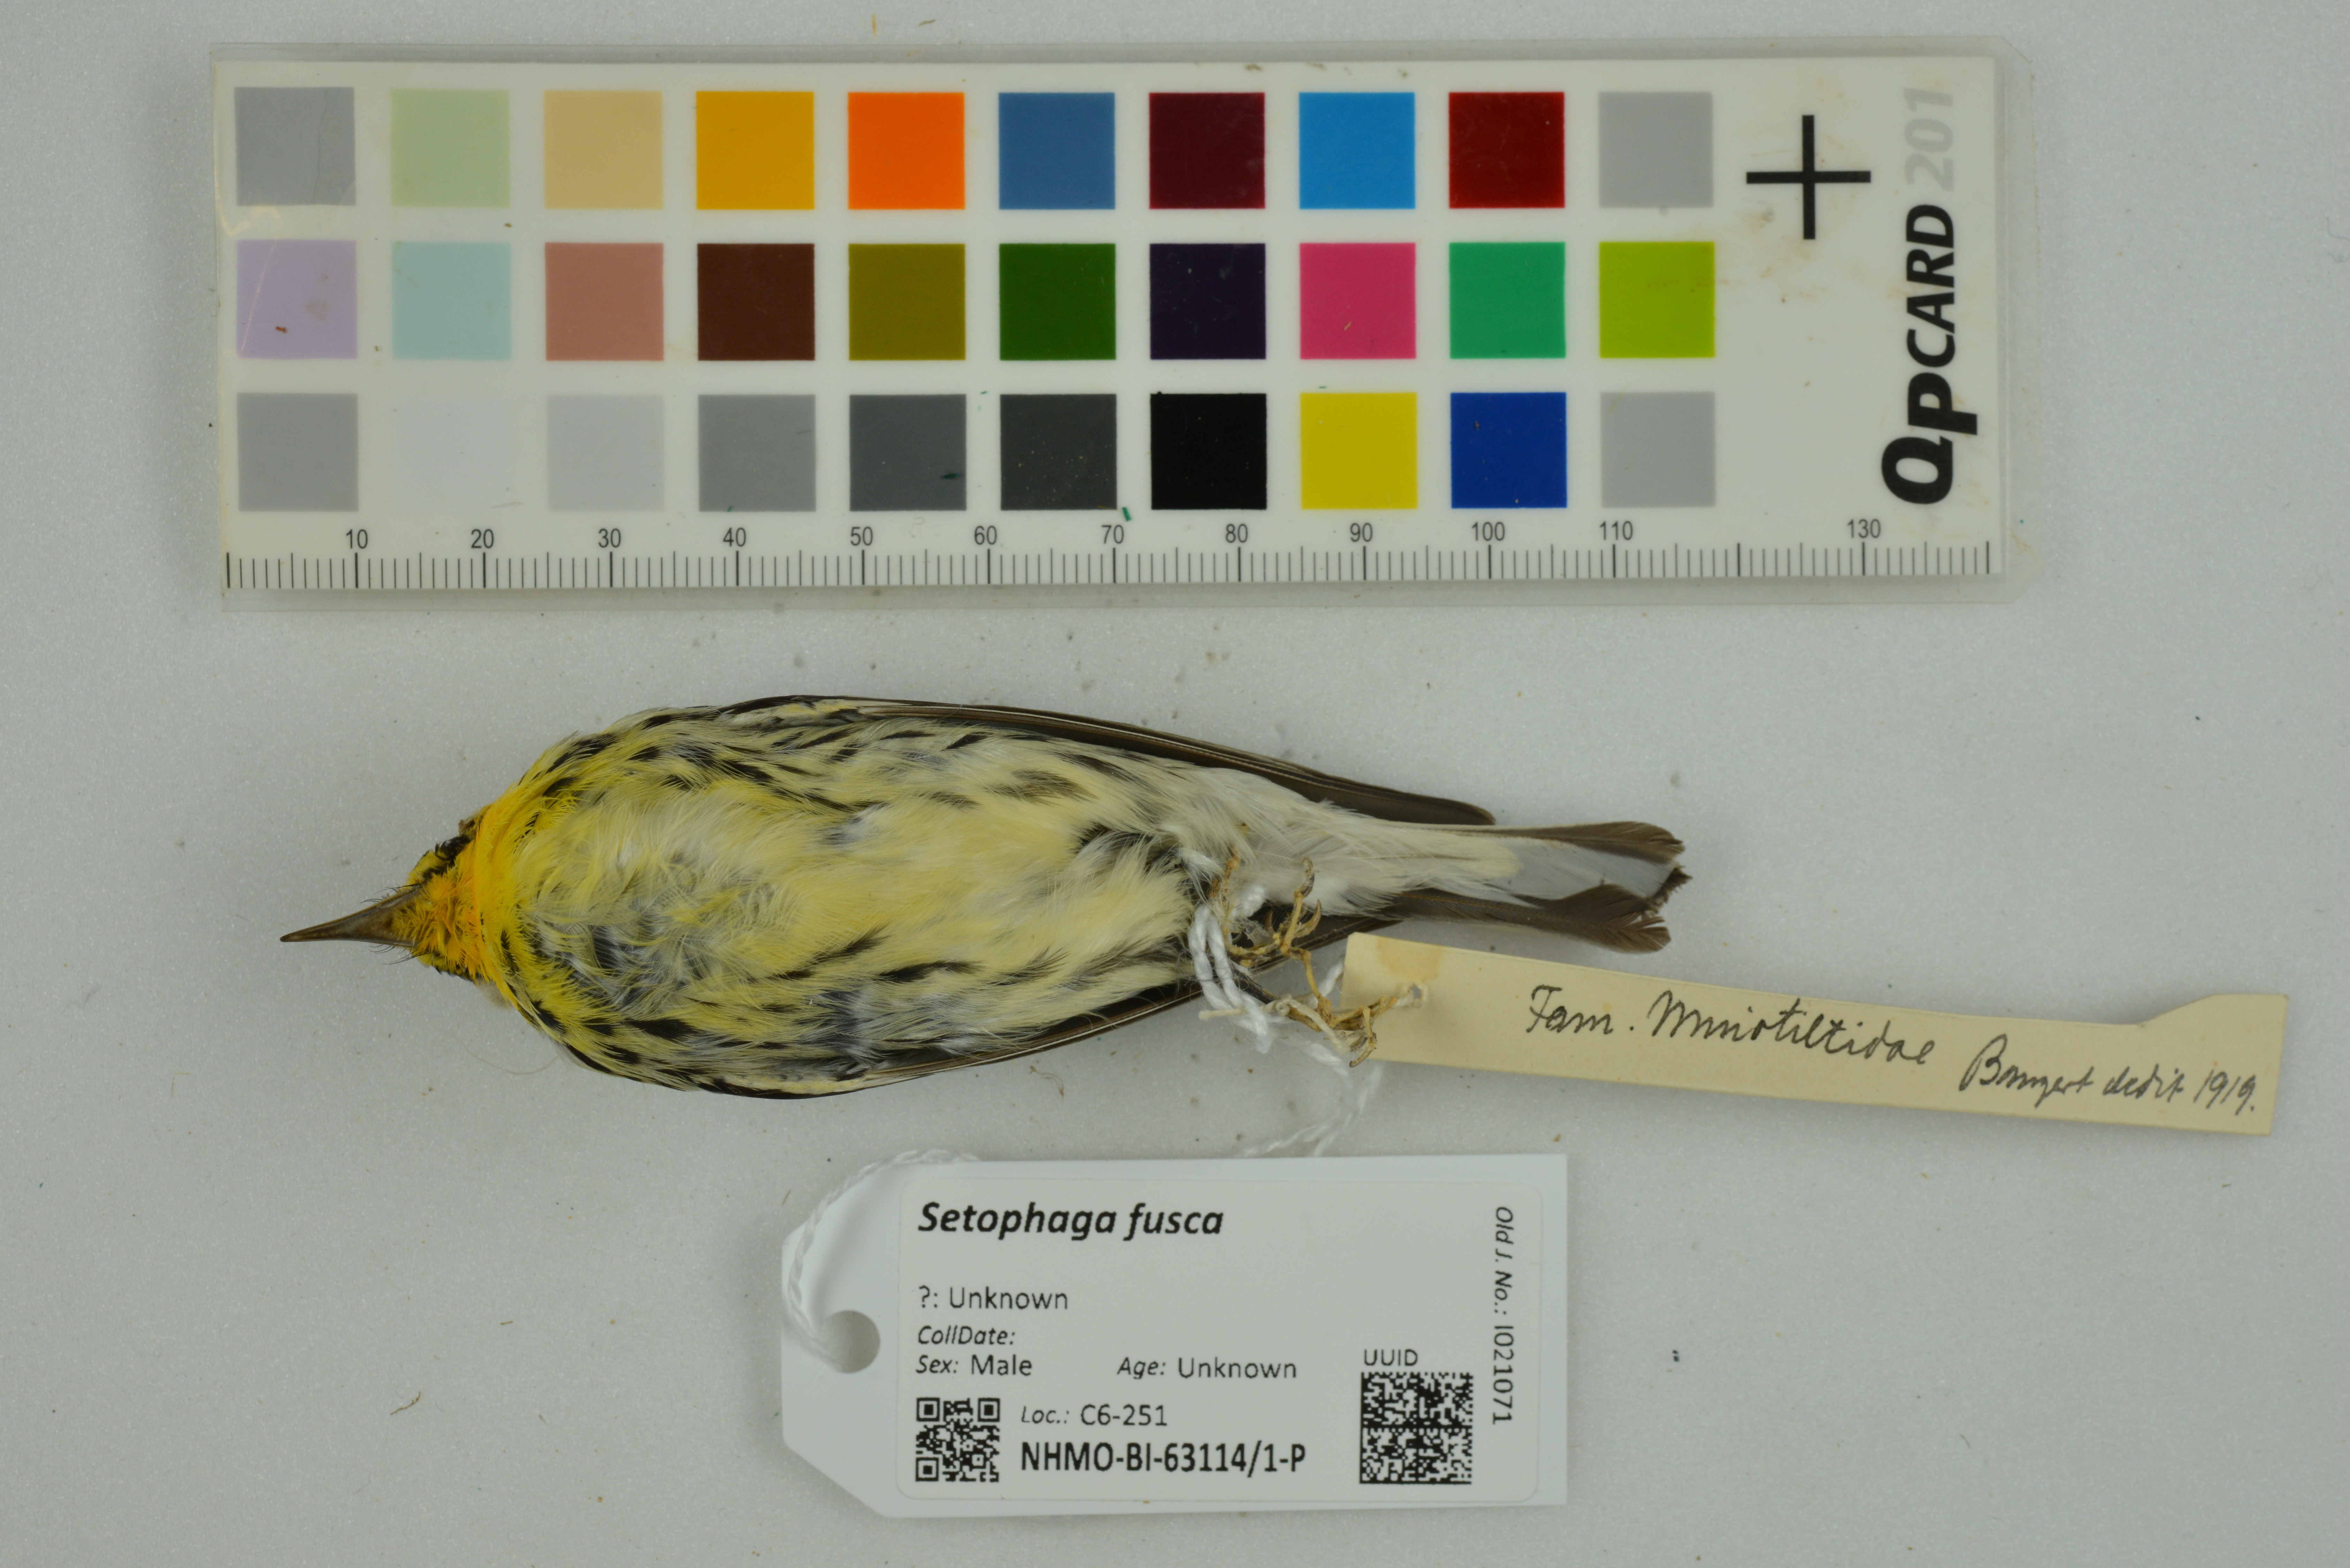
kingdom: Animalia
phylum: Chordata
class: Aves
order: Passeriformes
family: Parulidae
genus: Setophaga
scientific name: Setophaga fusca
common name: Blackburnian warbler
